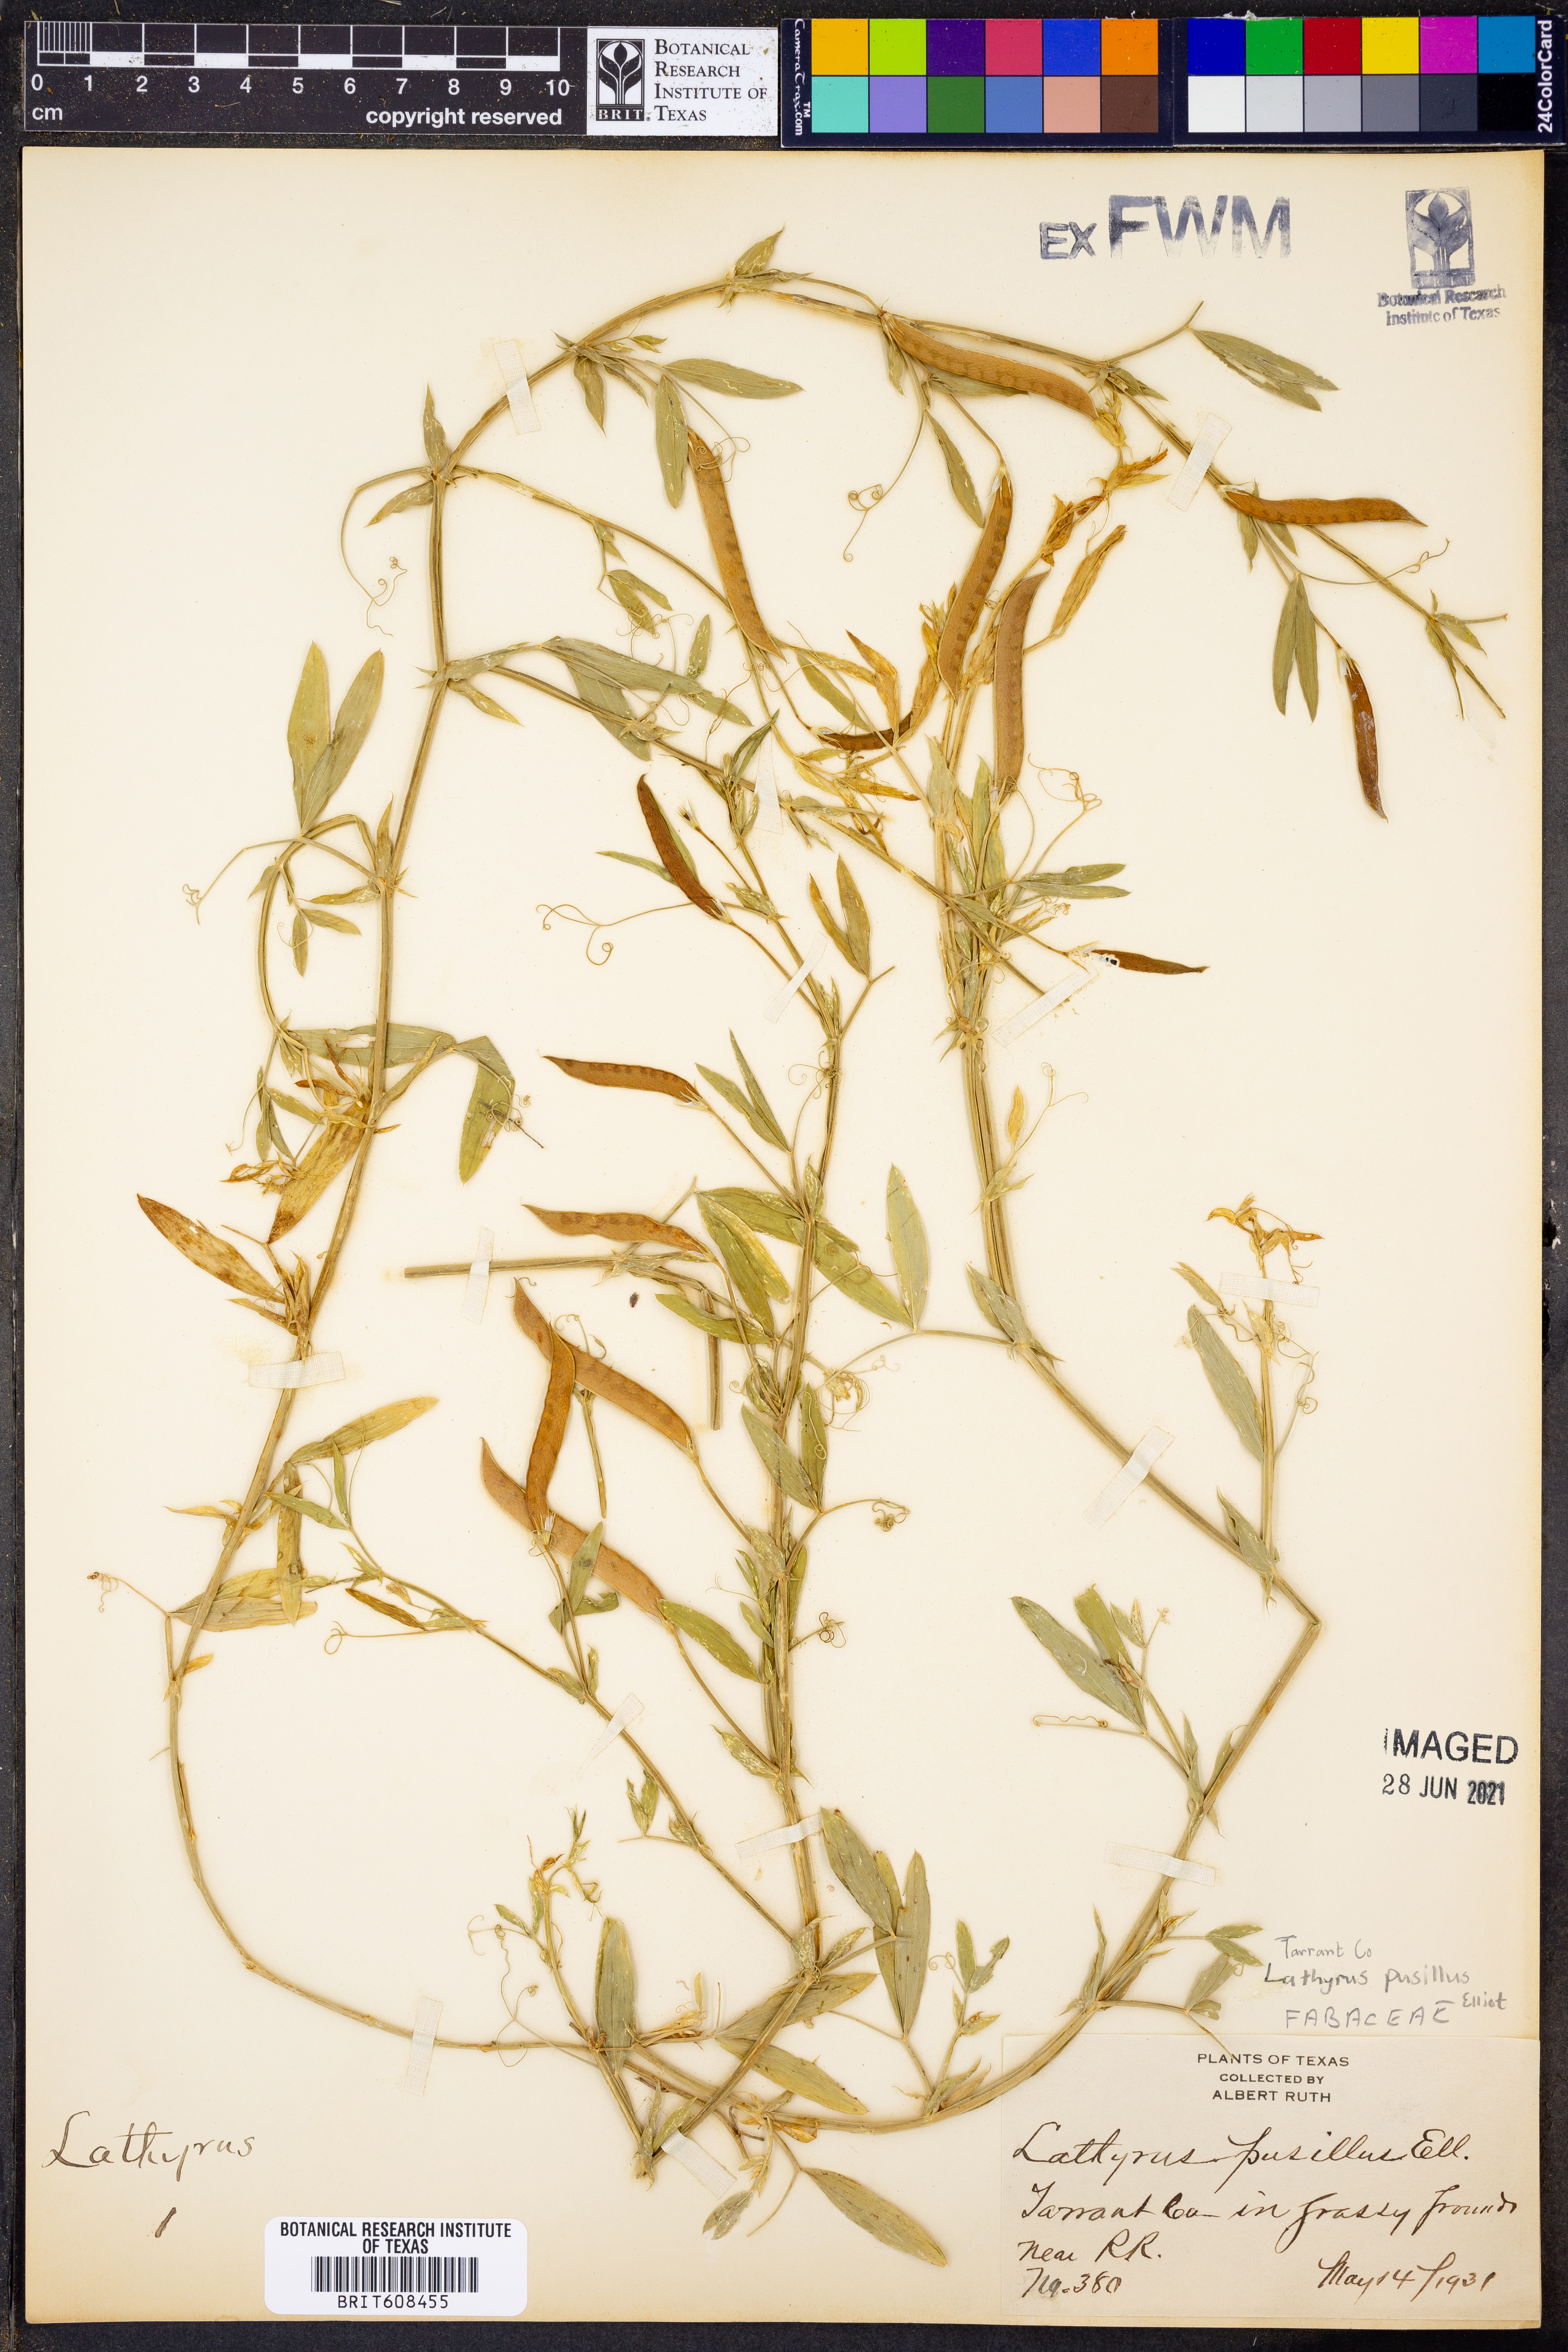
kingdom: Plantae
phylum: Tracheophyta
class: Magnoliopsida
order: Fabales
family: Fabaceae
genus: Lathyrus
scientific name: Lathyrus pusillus
